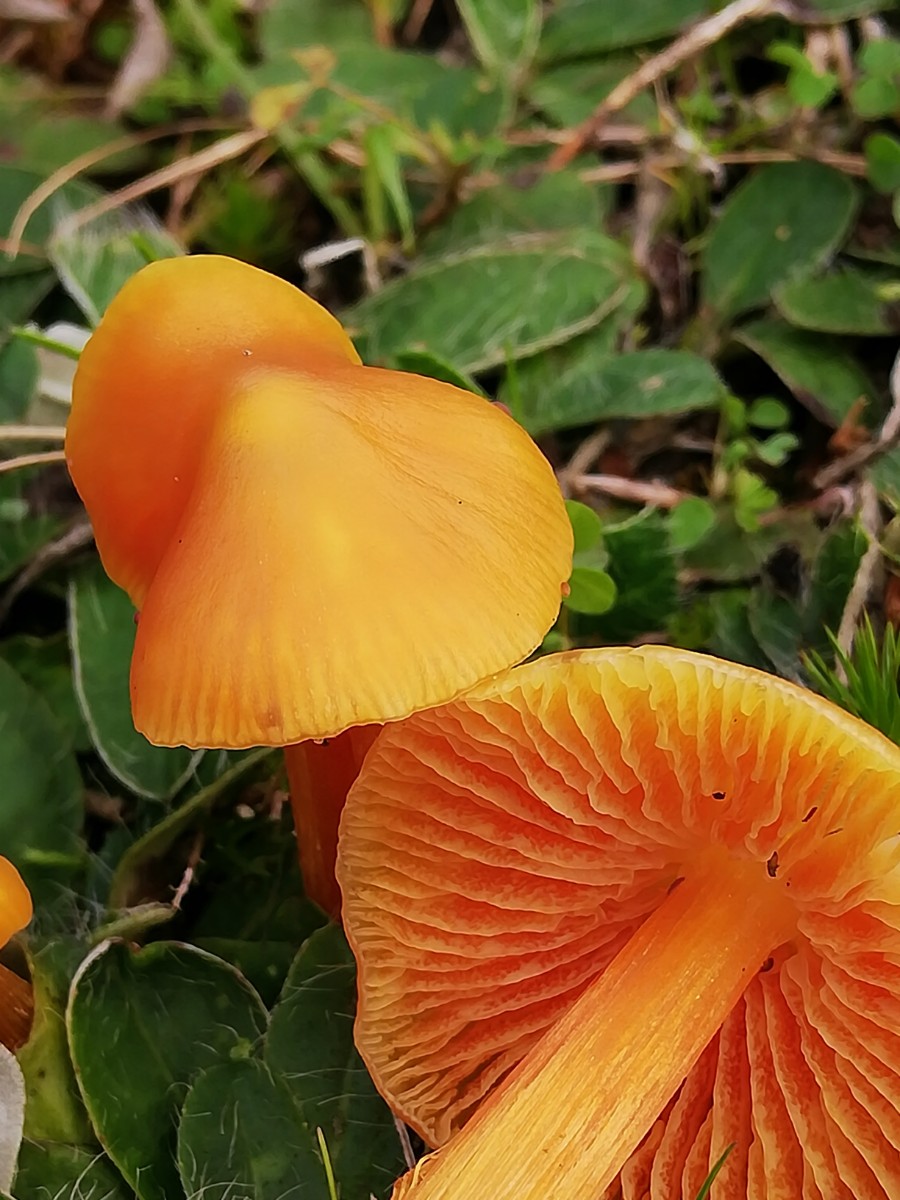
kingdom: Fungi
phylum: Basidiomycota
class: Agaricomycetes
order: Agaricales
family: Hygrophoraceae
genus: Hygrocybe
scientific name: Hygrocybe acutoconica
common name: spidspuklet vokshat
